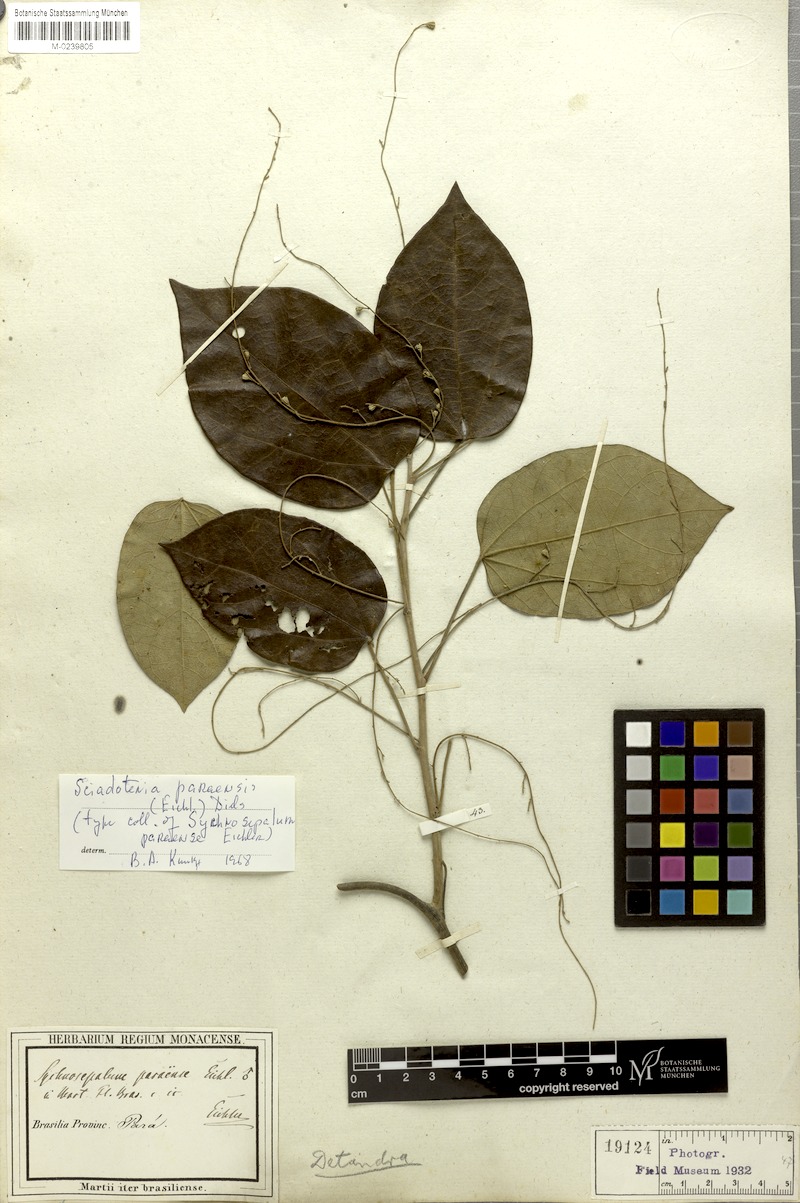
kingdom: Plantae
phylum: Tracheophyta
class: Magnoliopsida
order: Ranunculales
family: Menispermaceae
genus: Sciadotenia
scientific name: Sciadotenia paraensis
